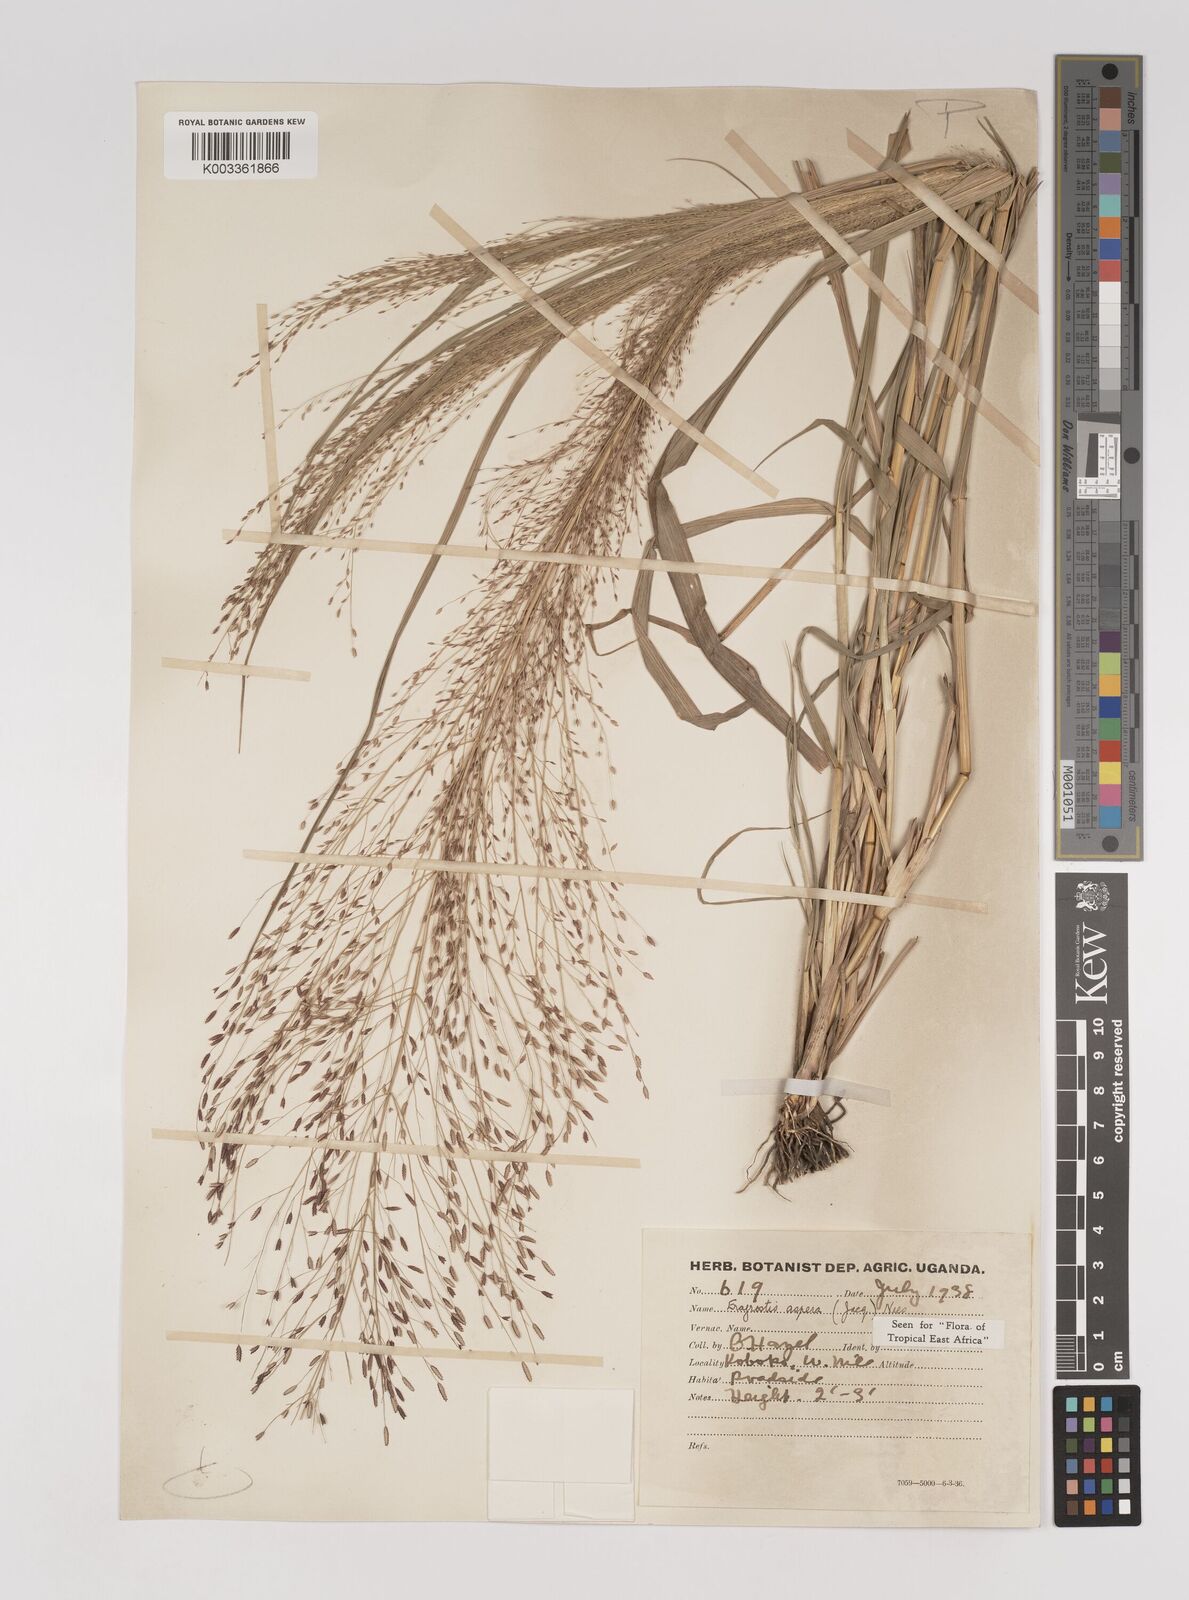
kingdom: Plantae
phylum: Tracheophyta
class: Liliopsida
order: Poales
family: Poaceae
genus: Eragrostis
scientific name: Eragrostis aspera
